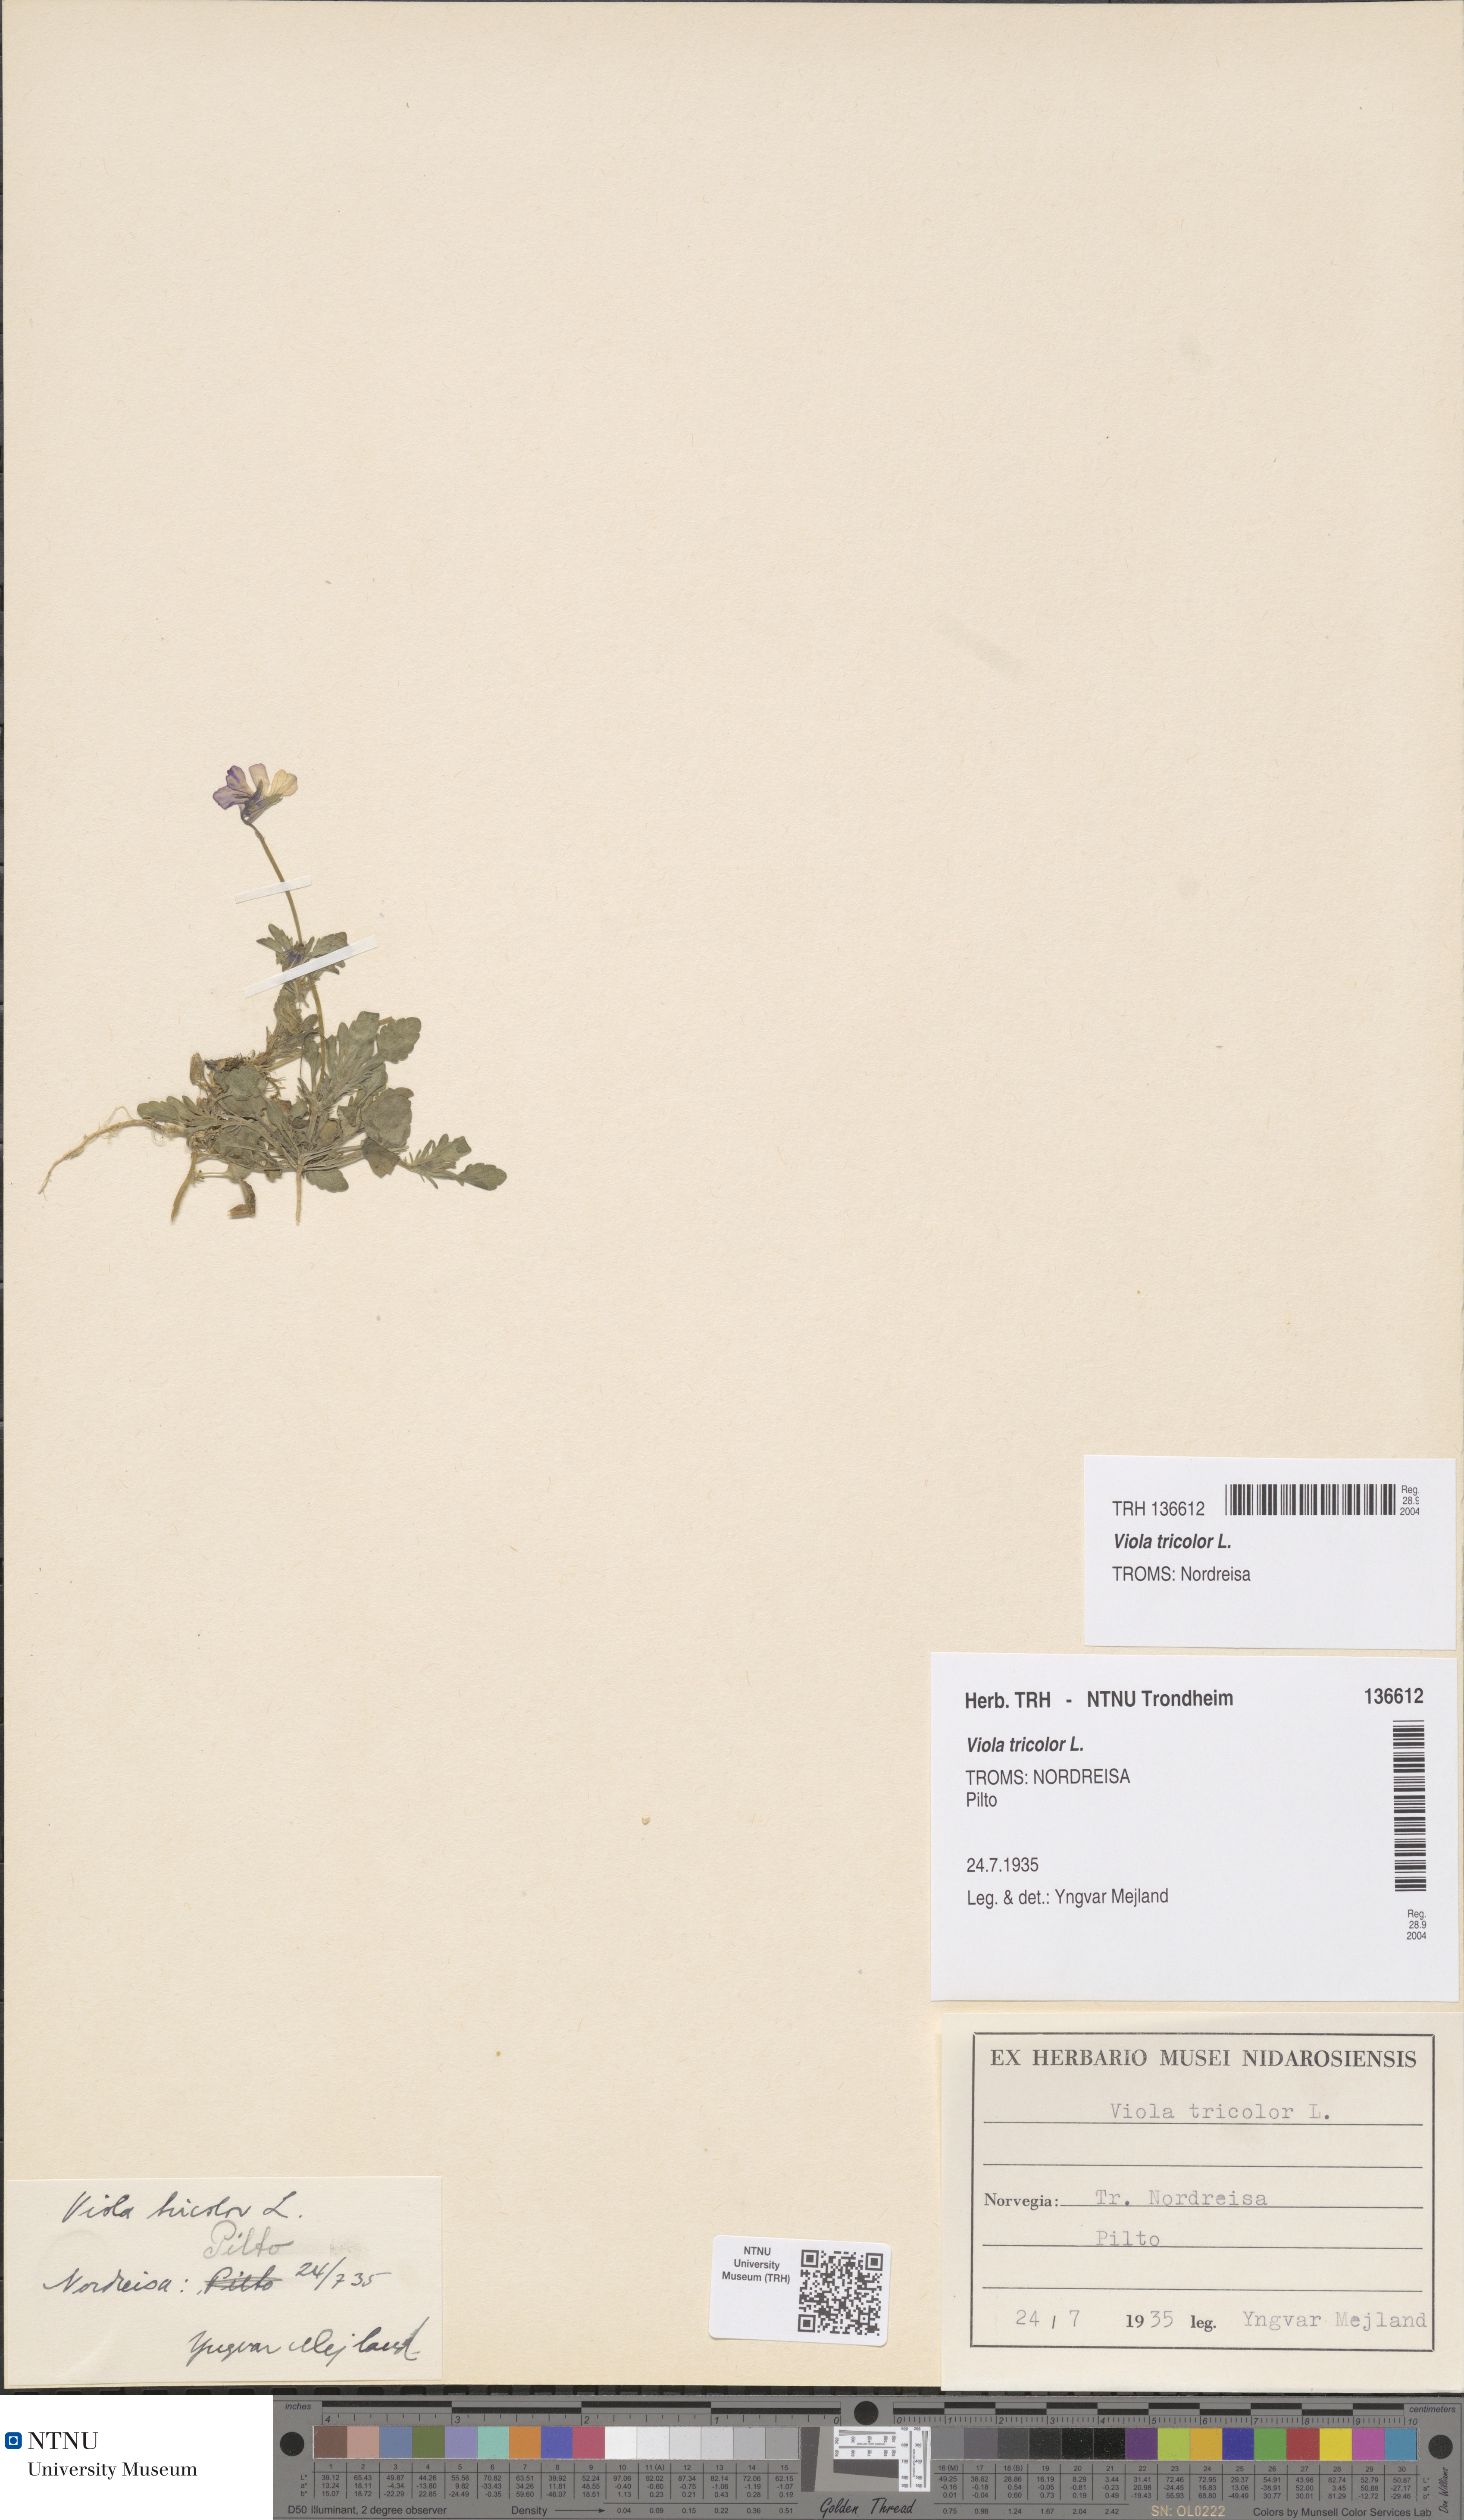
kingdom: Plantae
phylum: Tracheophyta
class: Magnoliopsida
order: Malpighiales
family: Violaceae
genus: Viola
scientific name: Viola tricolor
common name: Pansy
